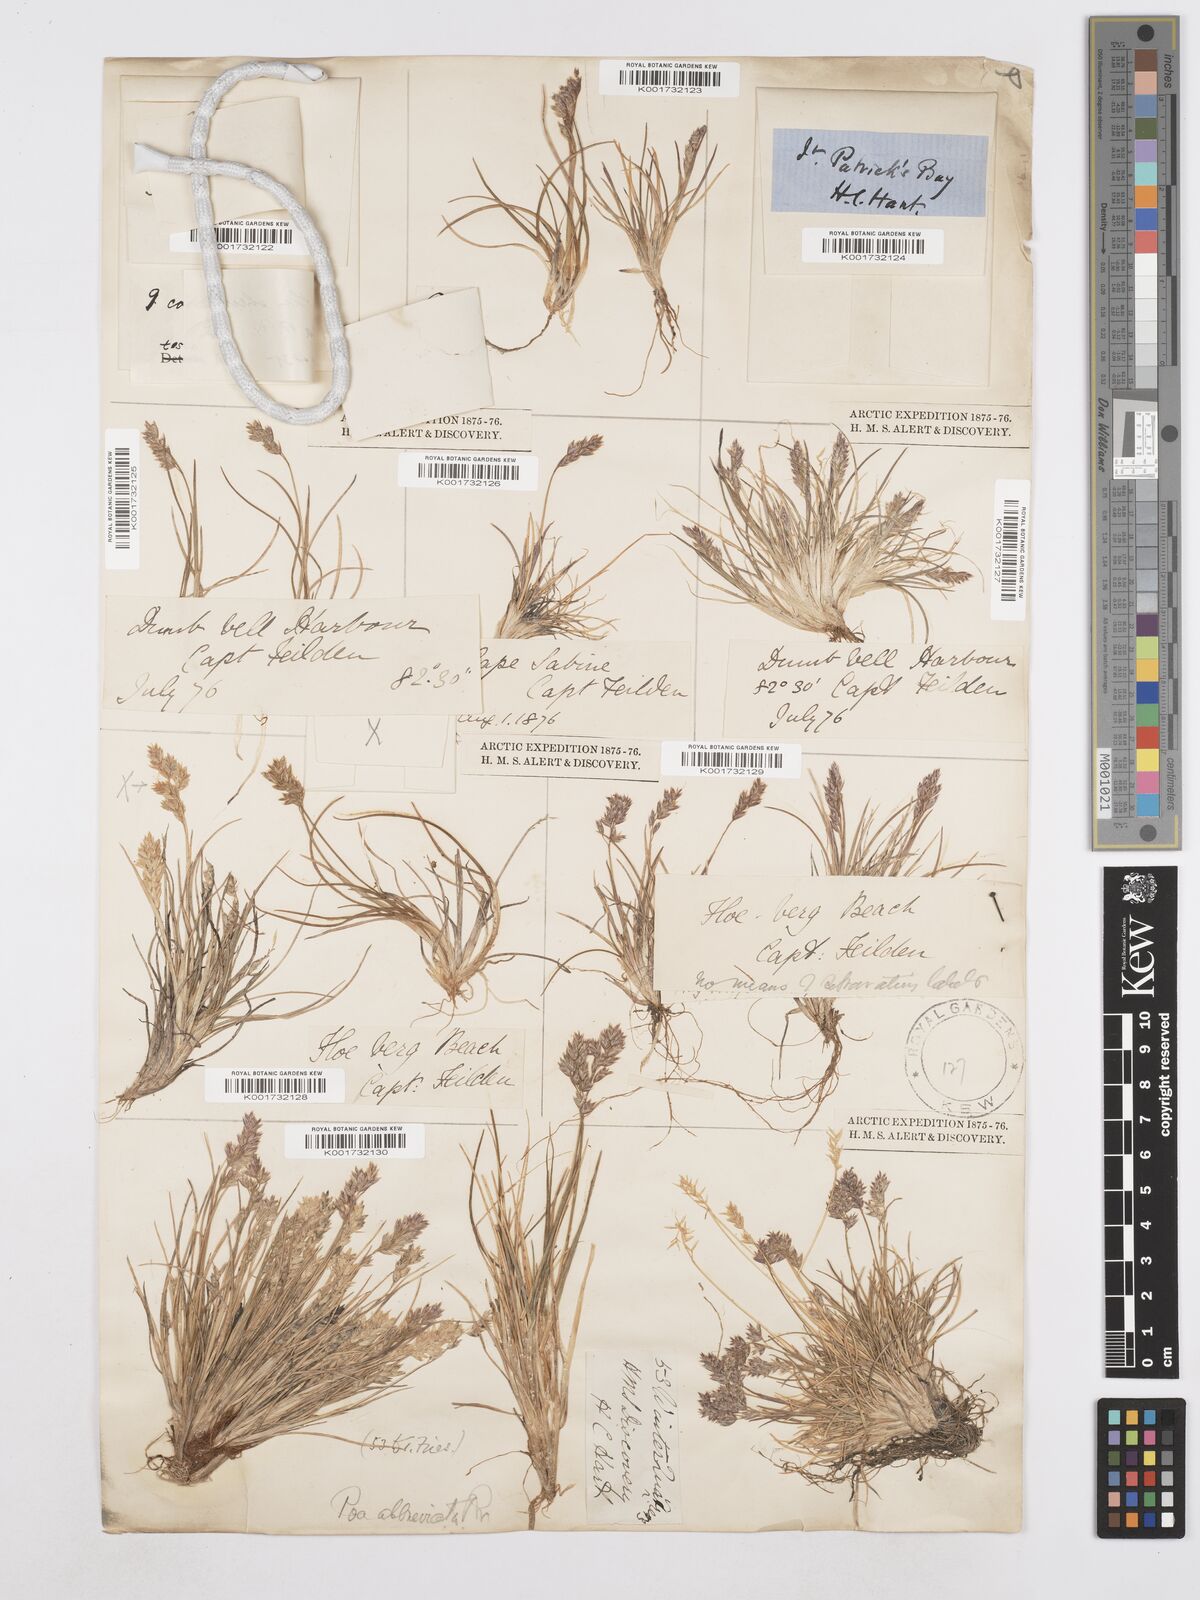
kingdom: Plantae
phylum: Tracheophyta
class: Liliopsida
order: Poales
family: Poaceae
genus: Poa
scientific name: Poa abbreviata
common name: Abbreviated bluegrass
